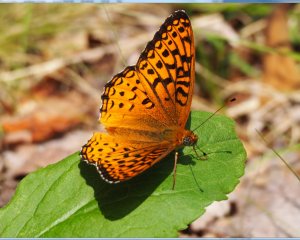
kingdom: Animalia
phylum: Arthropoda
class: Insecta
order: Lepidoptera
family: Nymphalidae
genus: Speyeria
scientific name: Speyeria aphrodite
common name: Aphrodite Fritillary
